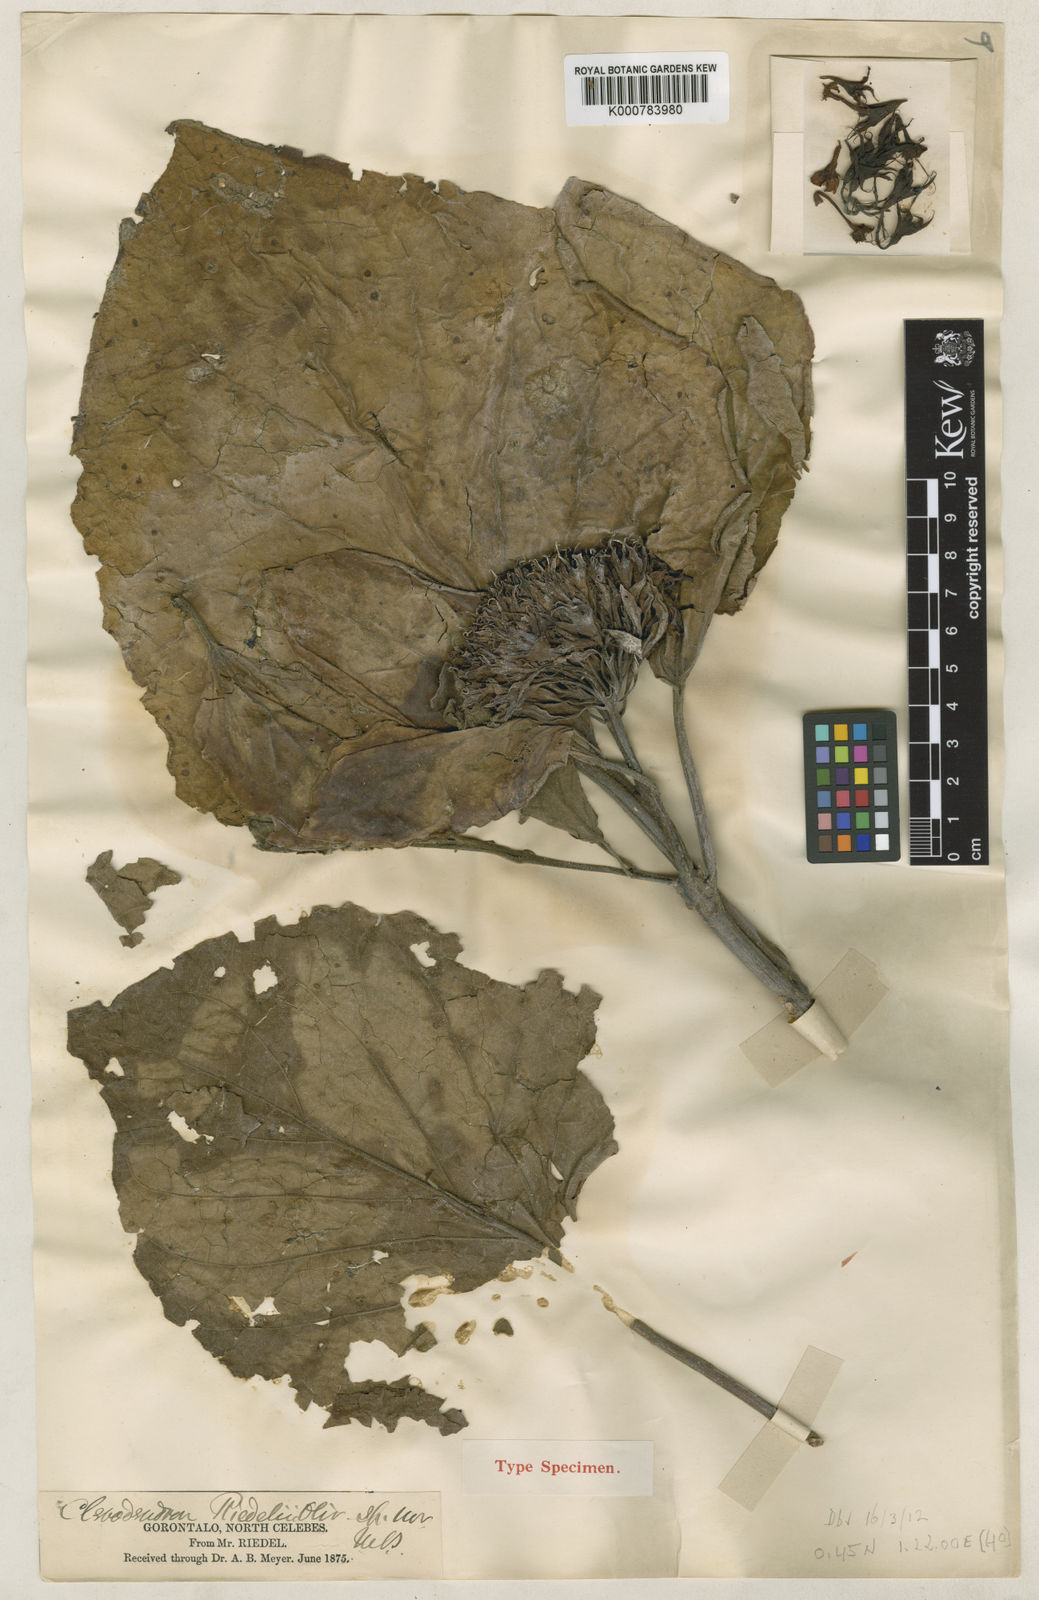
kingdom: Plantae
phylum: Tracheophyta
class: Magnoliopsida
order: Lamiales
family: Lamiaceae
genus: Clerodendrum
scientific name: Clerodendrum chinense
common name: Stickbush
